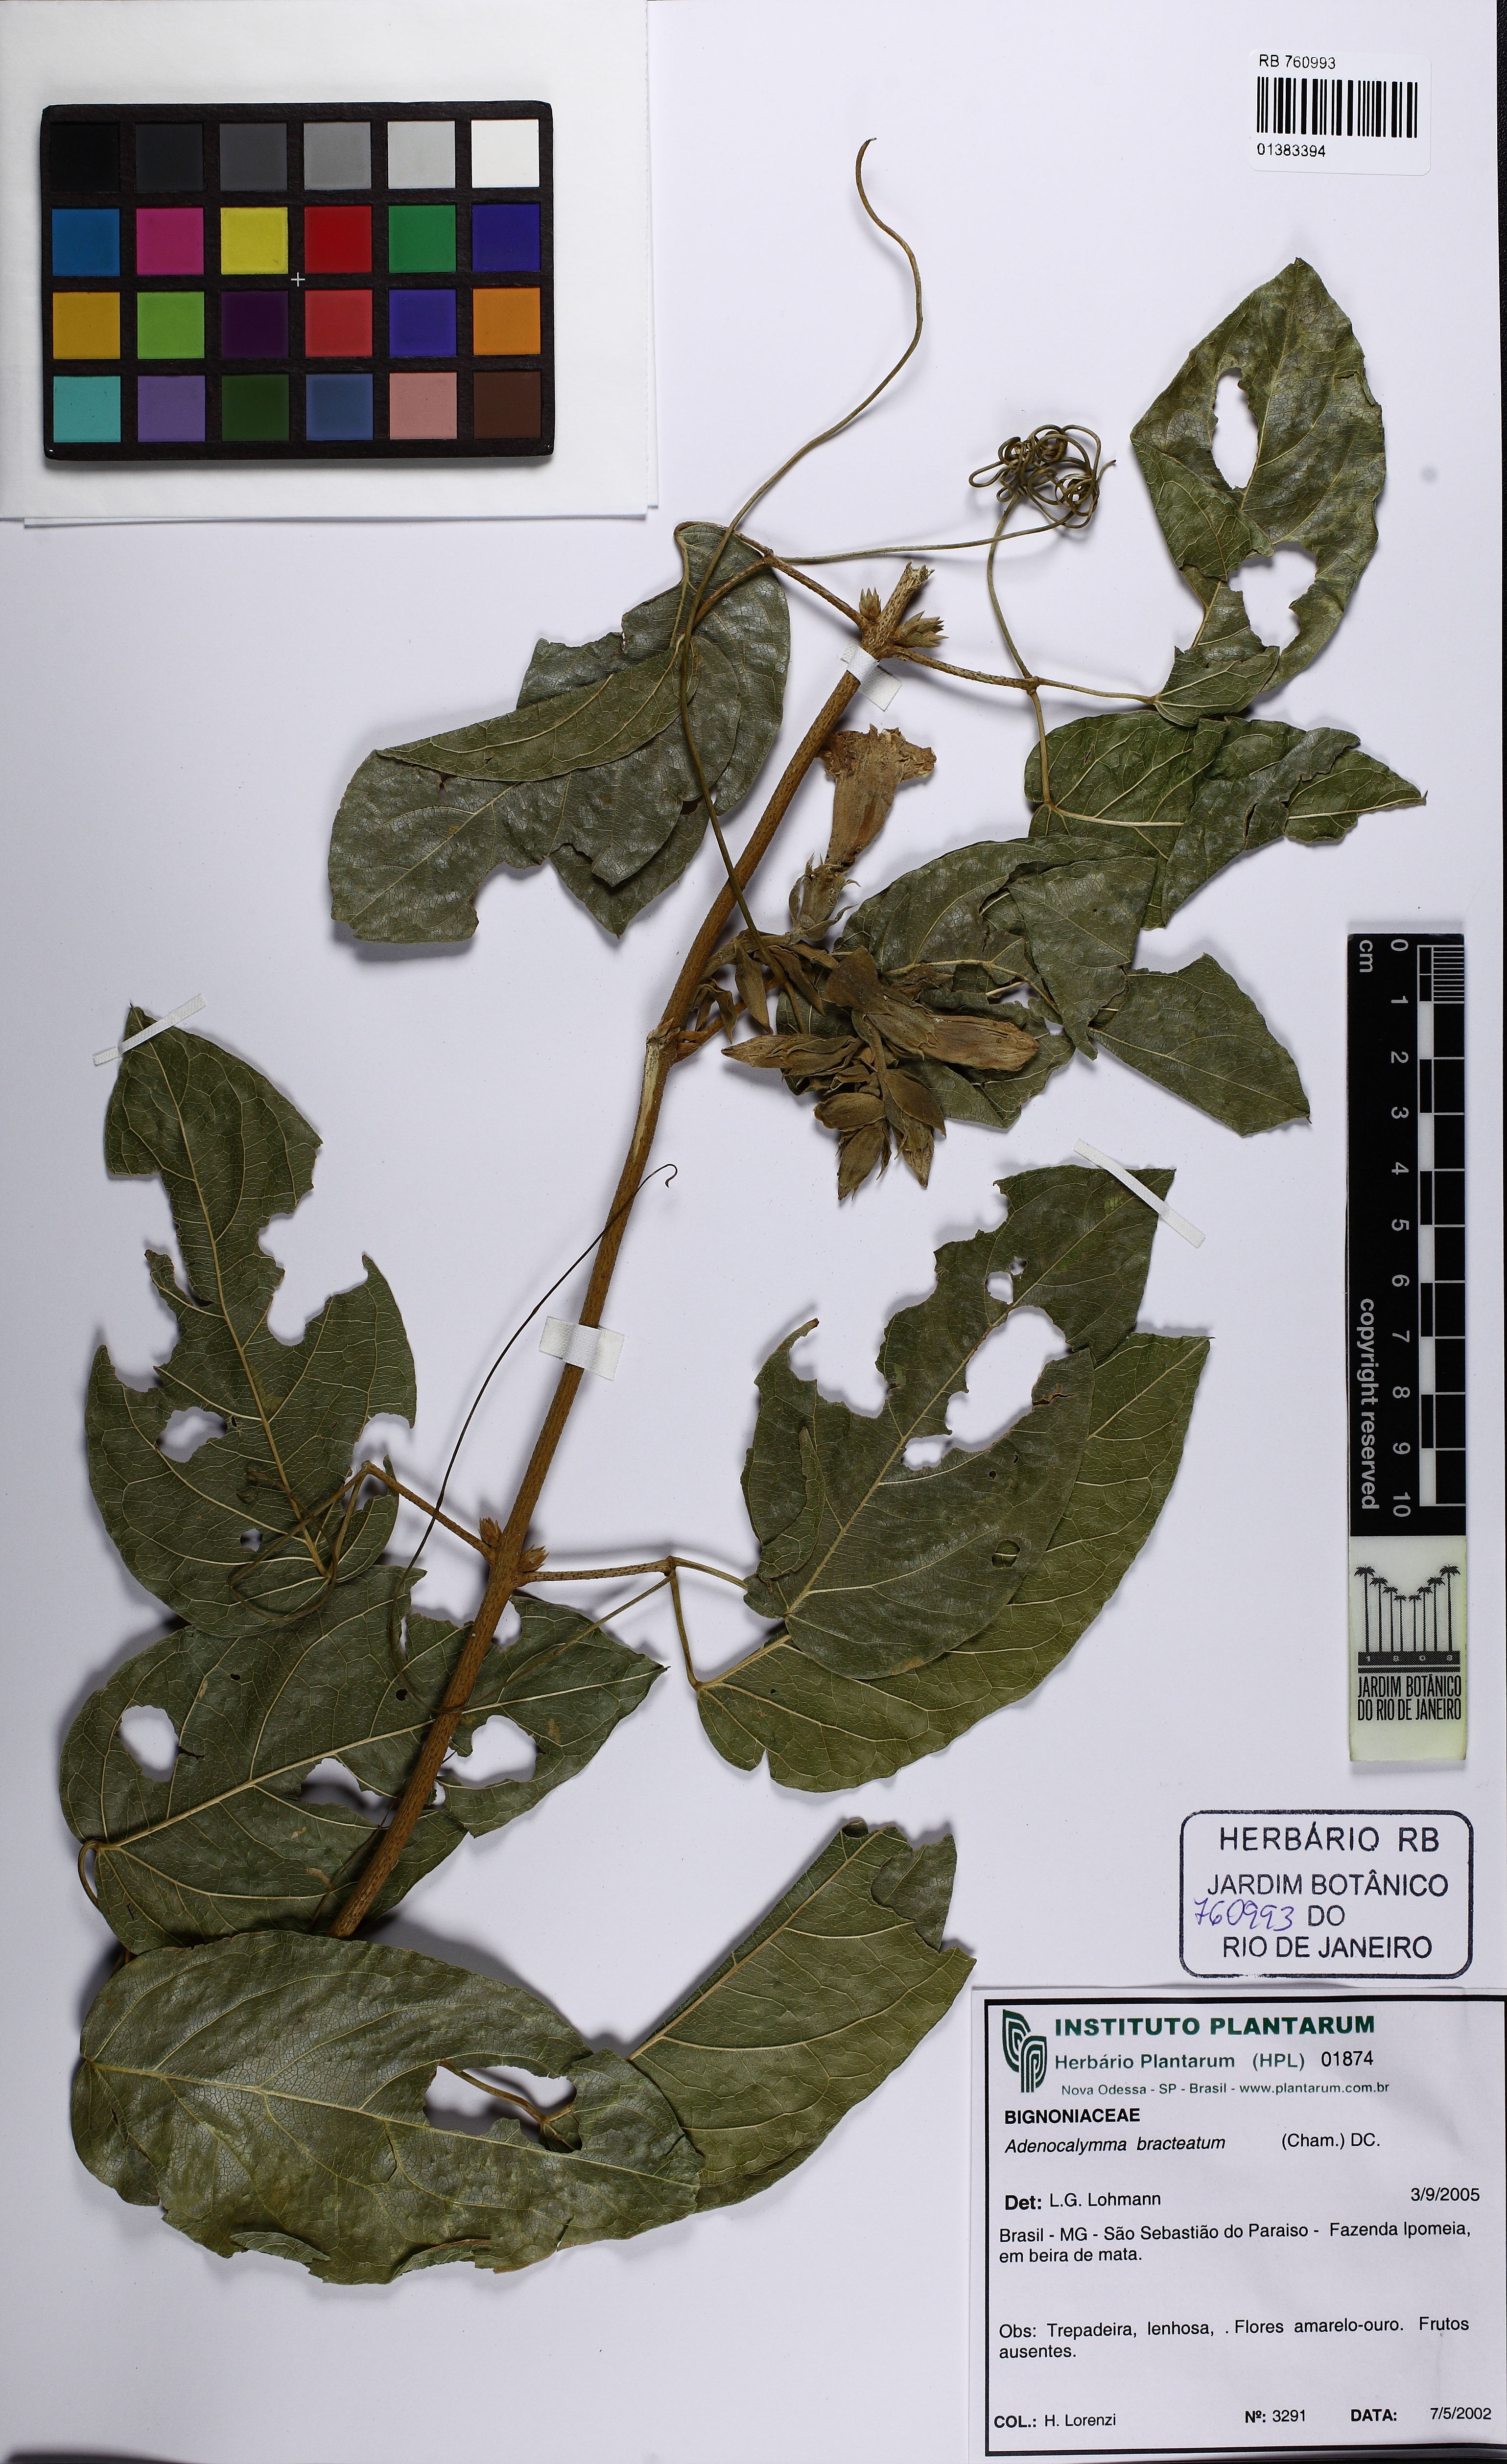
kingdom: Plantae
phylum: Tracheophyta
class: Magnoliopsida
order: Lamiales
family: Bignoniaceae
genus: Adenocalymma
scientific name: Adenocalymma bracteatum
